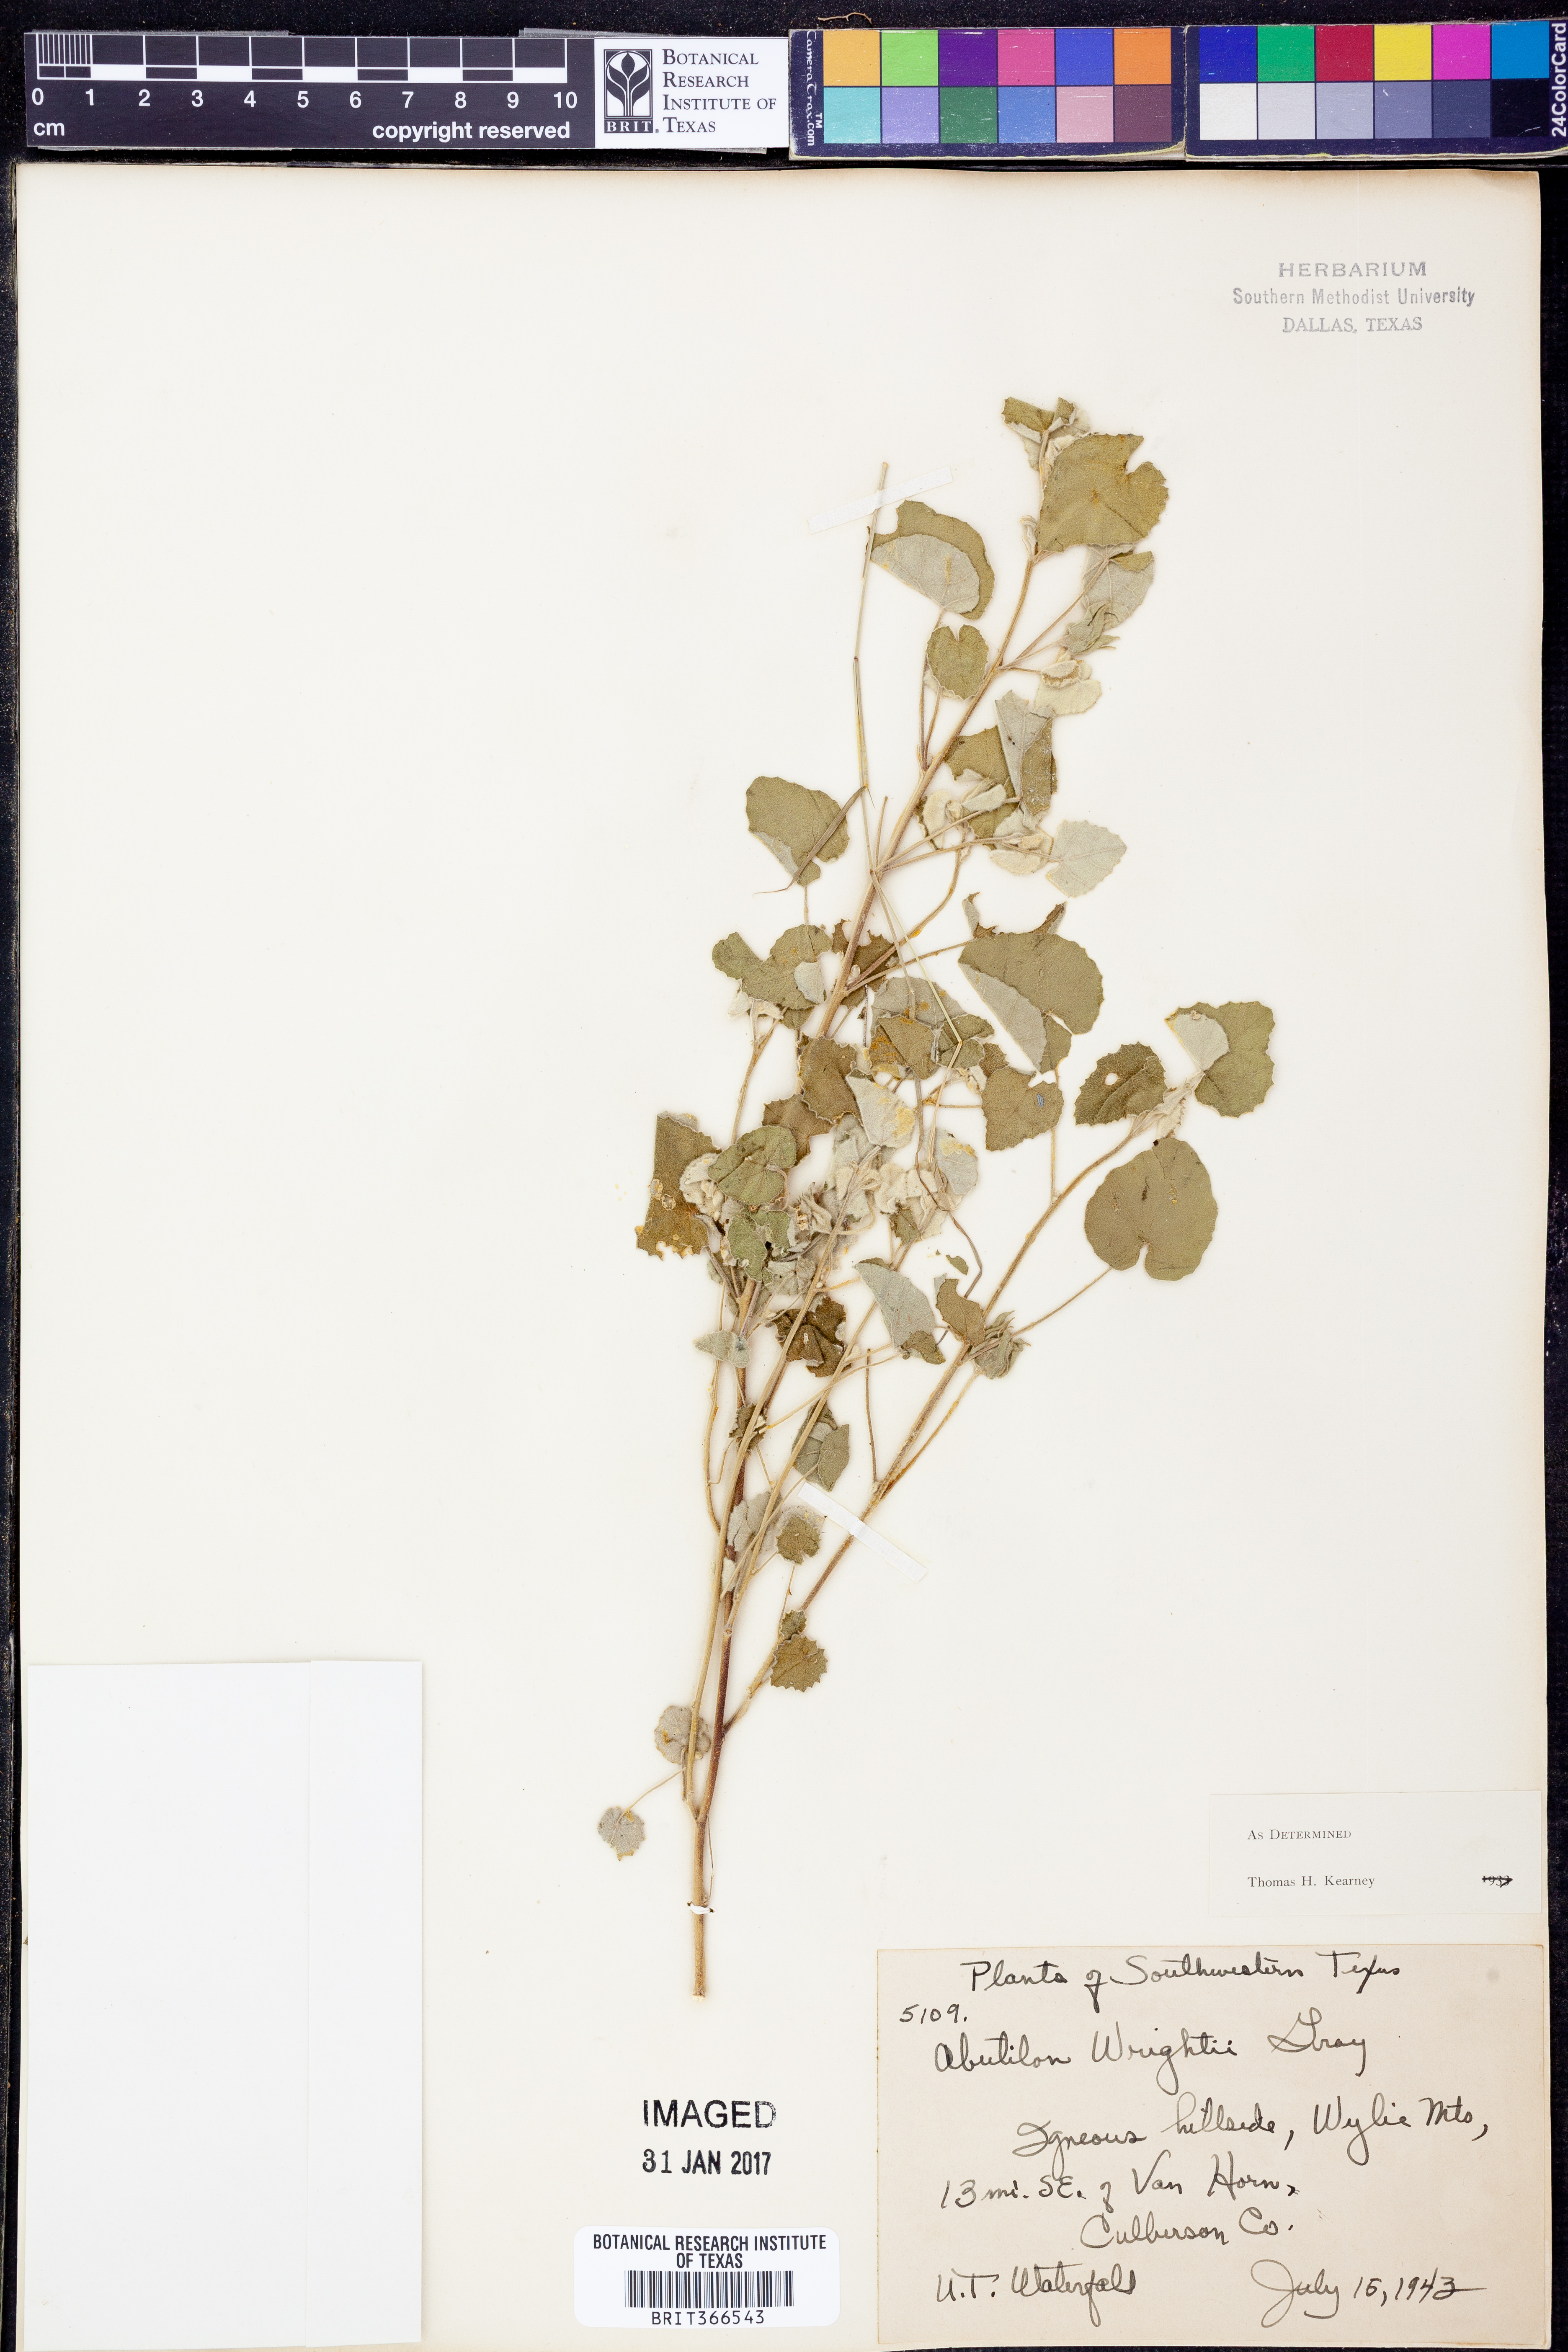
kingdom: Plantae
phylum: Tracheophyta
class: Magnoliopsida
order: Malvales
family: Malvaceae
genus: Abutilon
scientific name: Abutilon wrightii
